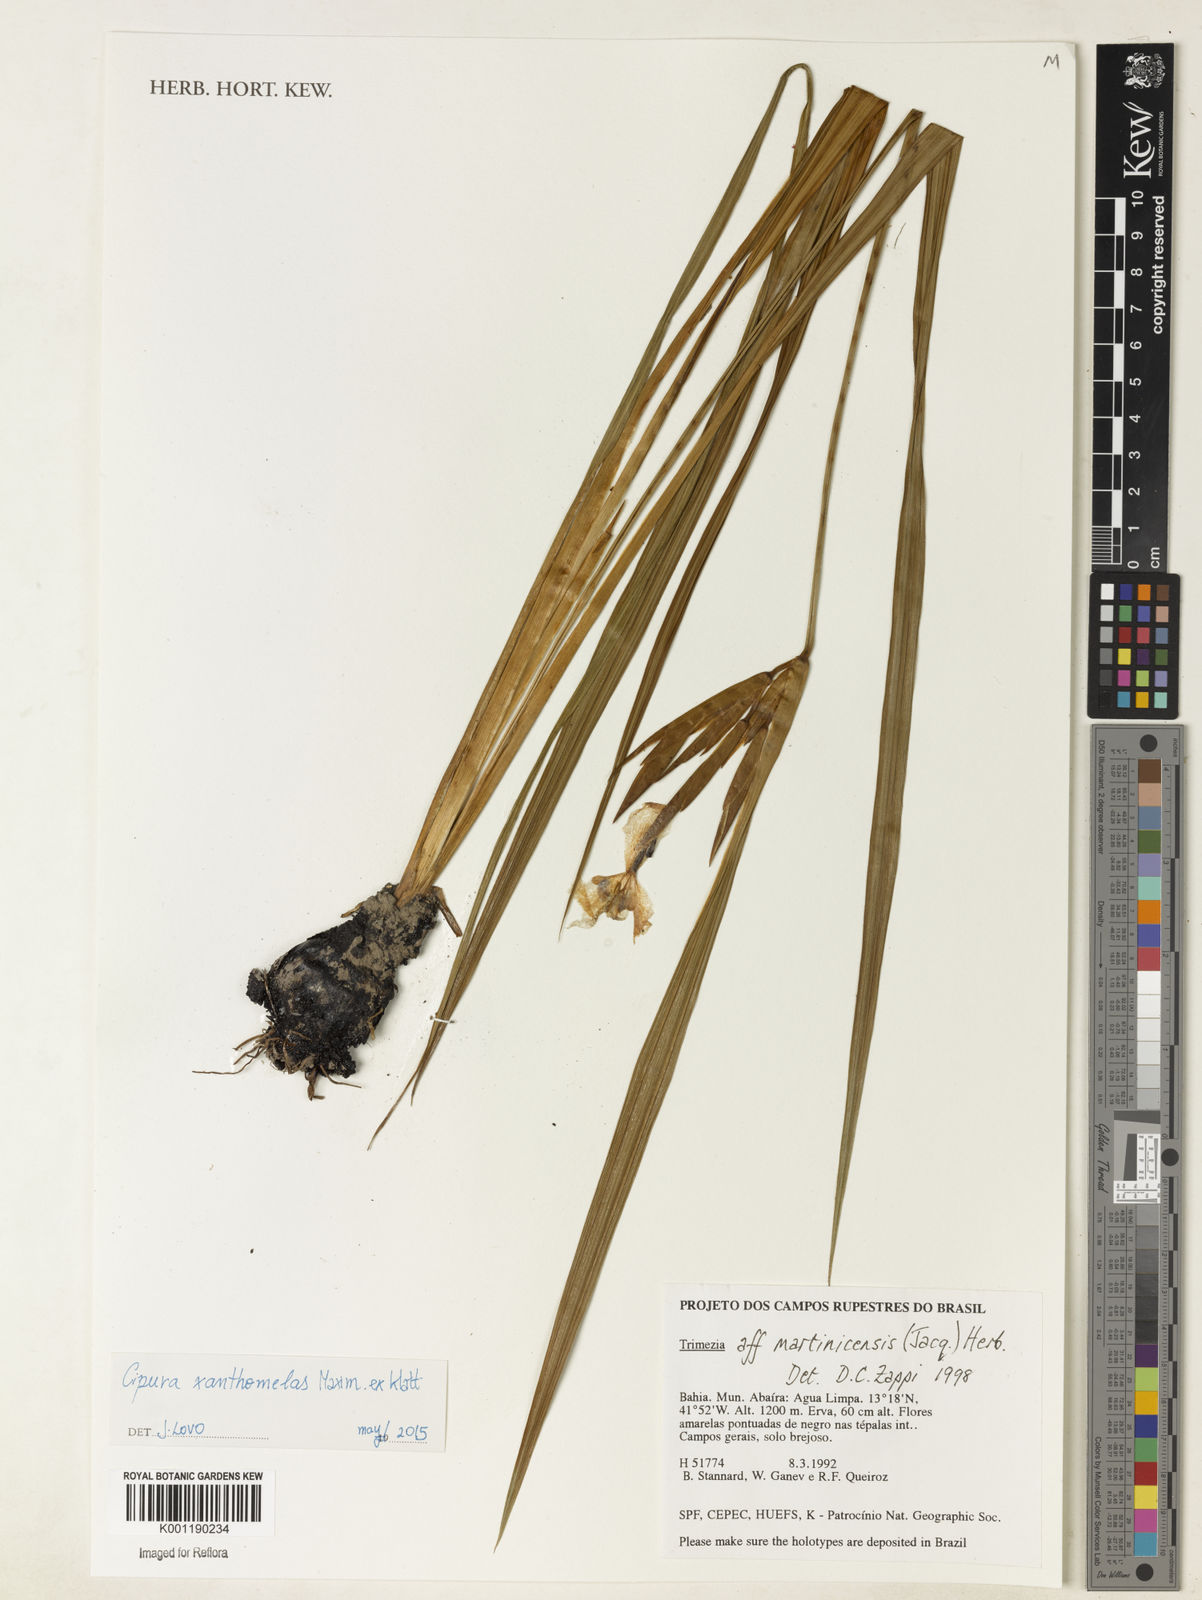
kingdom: Plantae
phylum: Tracheophyta
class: Liliopsida
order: Asparagales
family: Iridaceae
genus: Trimezia
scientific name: Trimezia martinicensis
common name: Martinique trimezia
